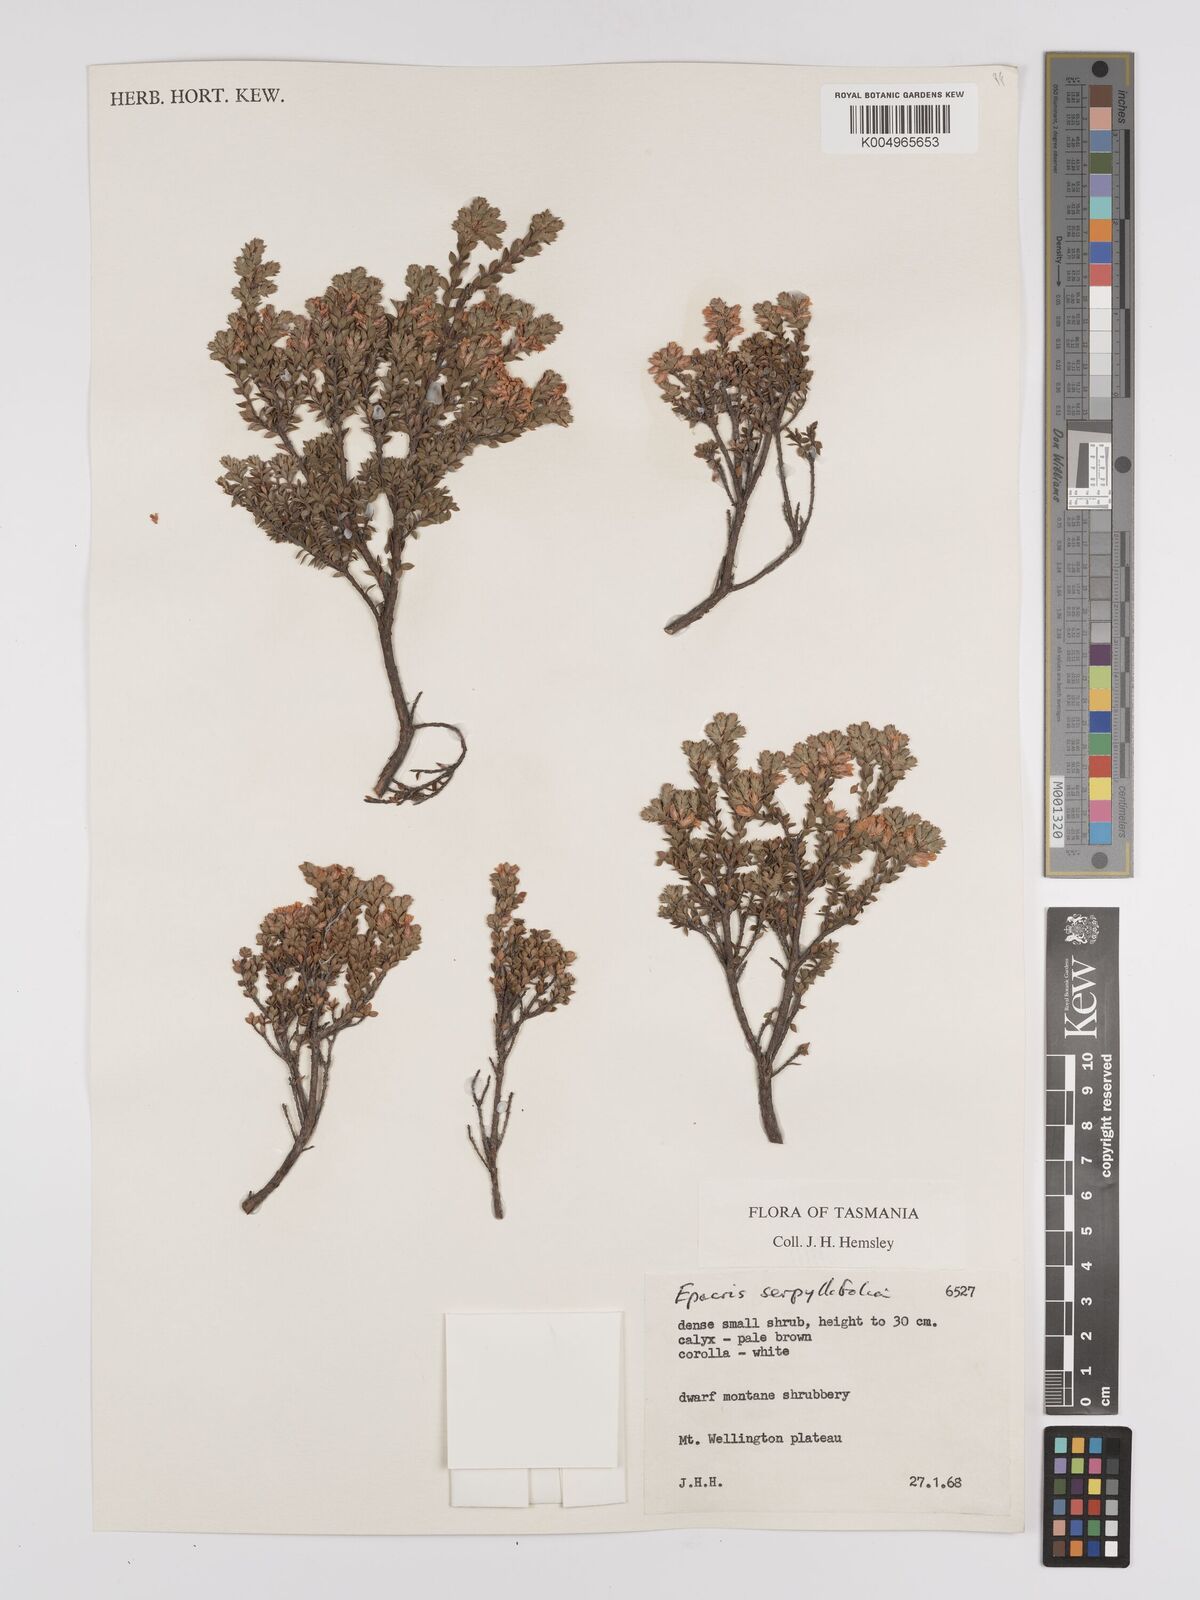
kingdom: Plantae
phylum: Tracheophyta
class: Magnoliopsida
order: Ericales
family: Ericaceae
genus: Epacris
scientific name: Epacris serpyllifolia
